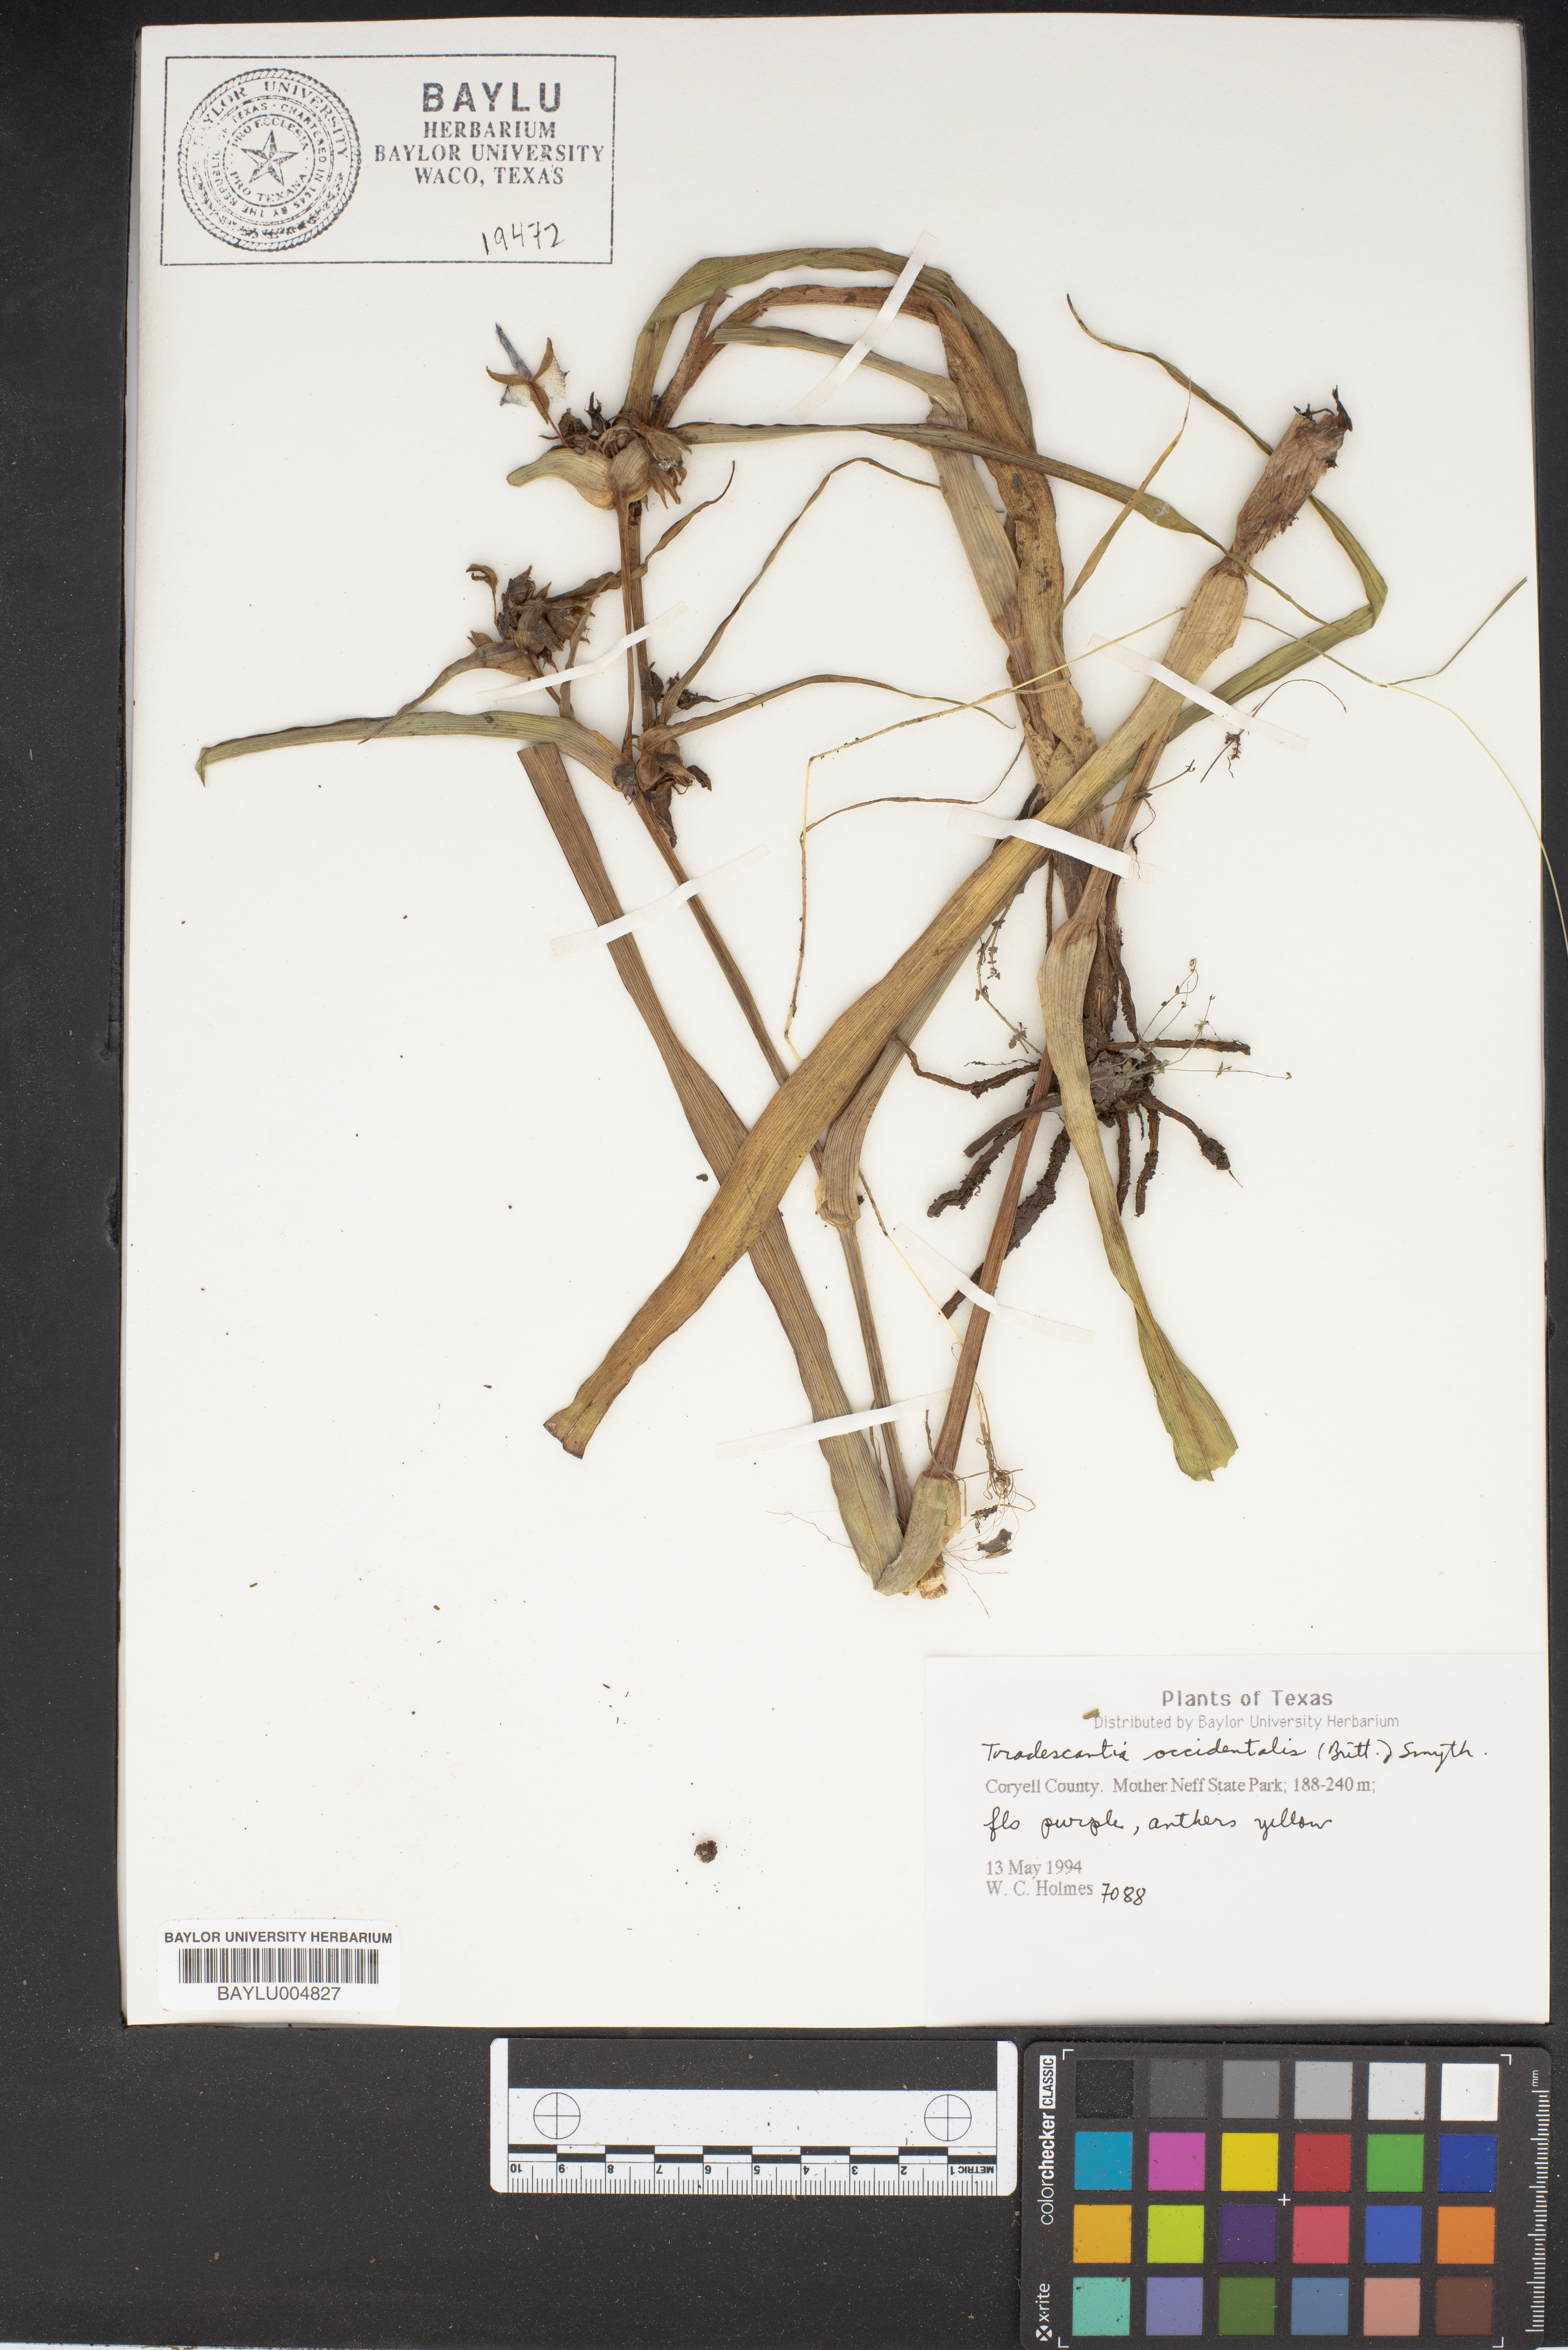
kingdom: Plantae
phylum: Tracheophyta
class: Liliopsida
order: Commelinales
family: Commelinaceae
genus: Tradescantia
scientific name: Tradescantia occidentalis
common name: Prairie spiderwort
